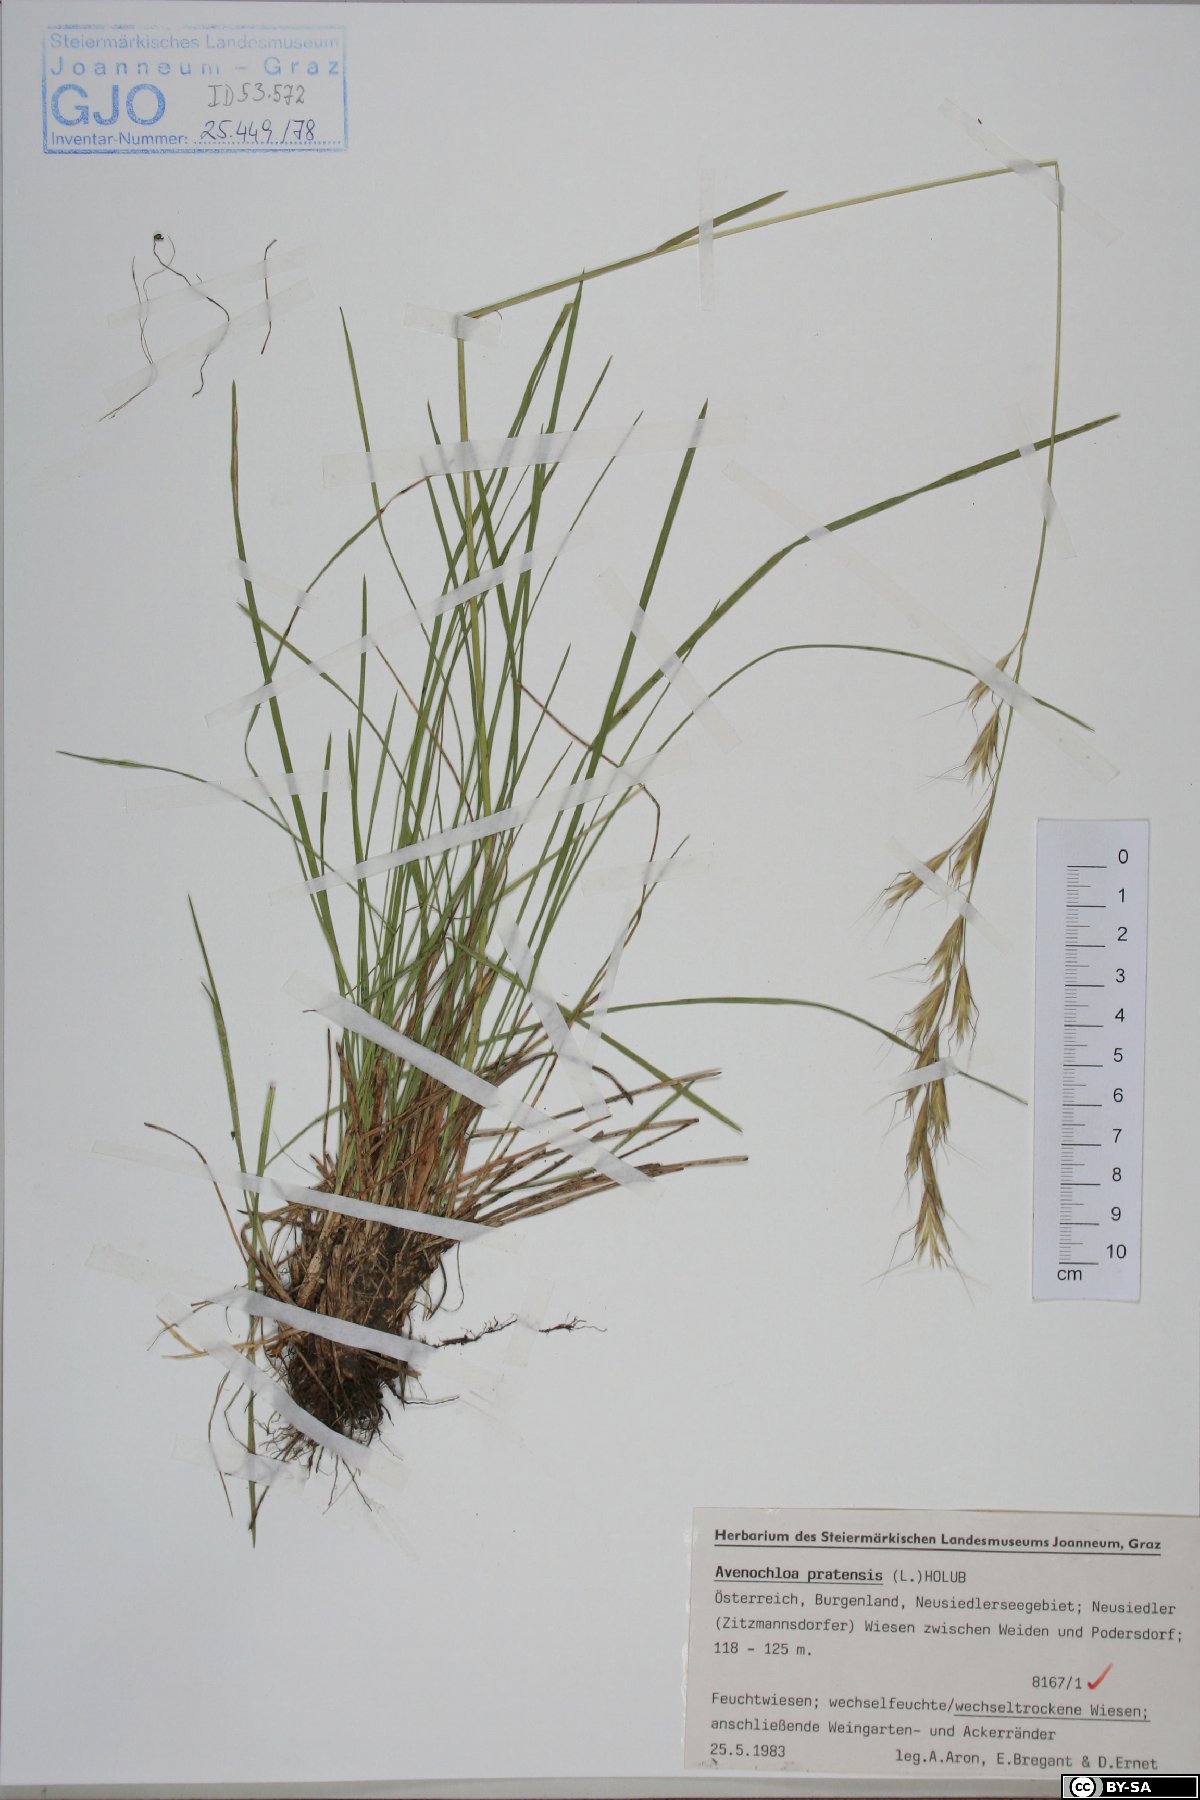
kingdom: Plantae
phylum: Tracheophyta
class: Liliopsida
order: Poales
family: Poaceae
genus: Helictochloa
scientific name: Helictochloa pratensis
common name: Meadow oat grass
